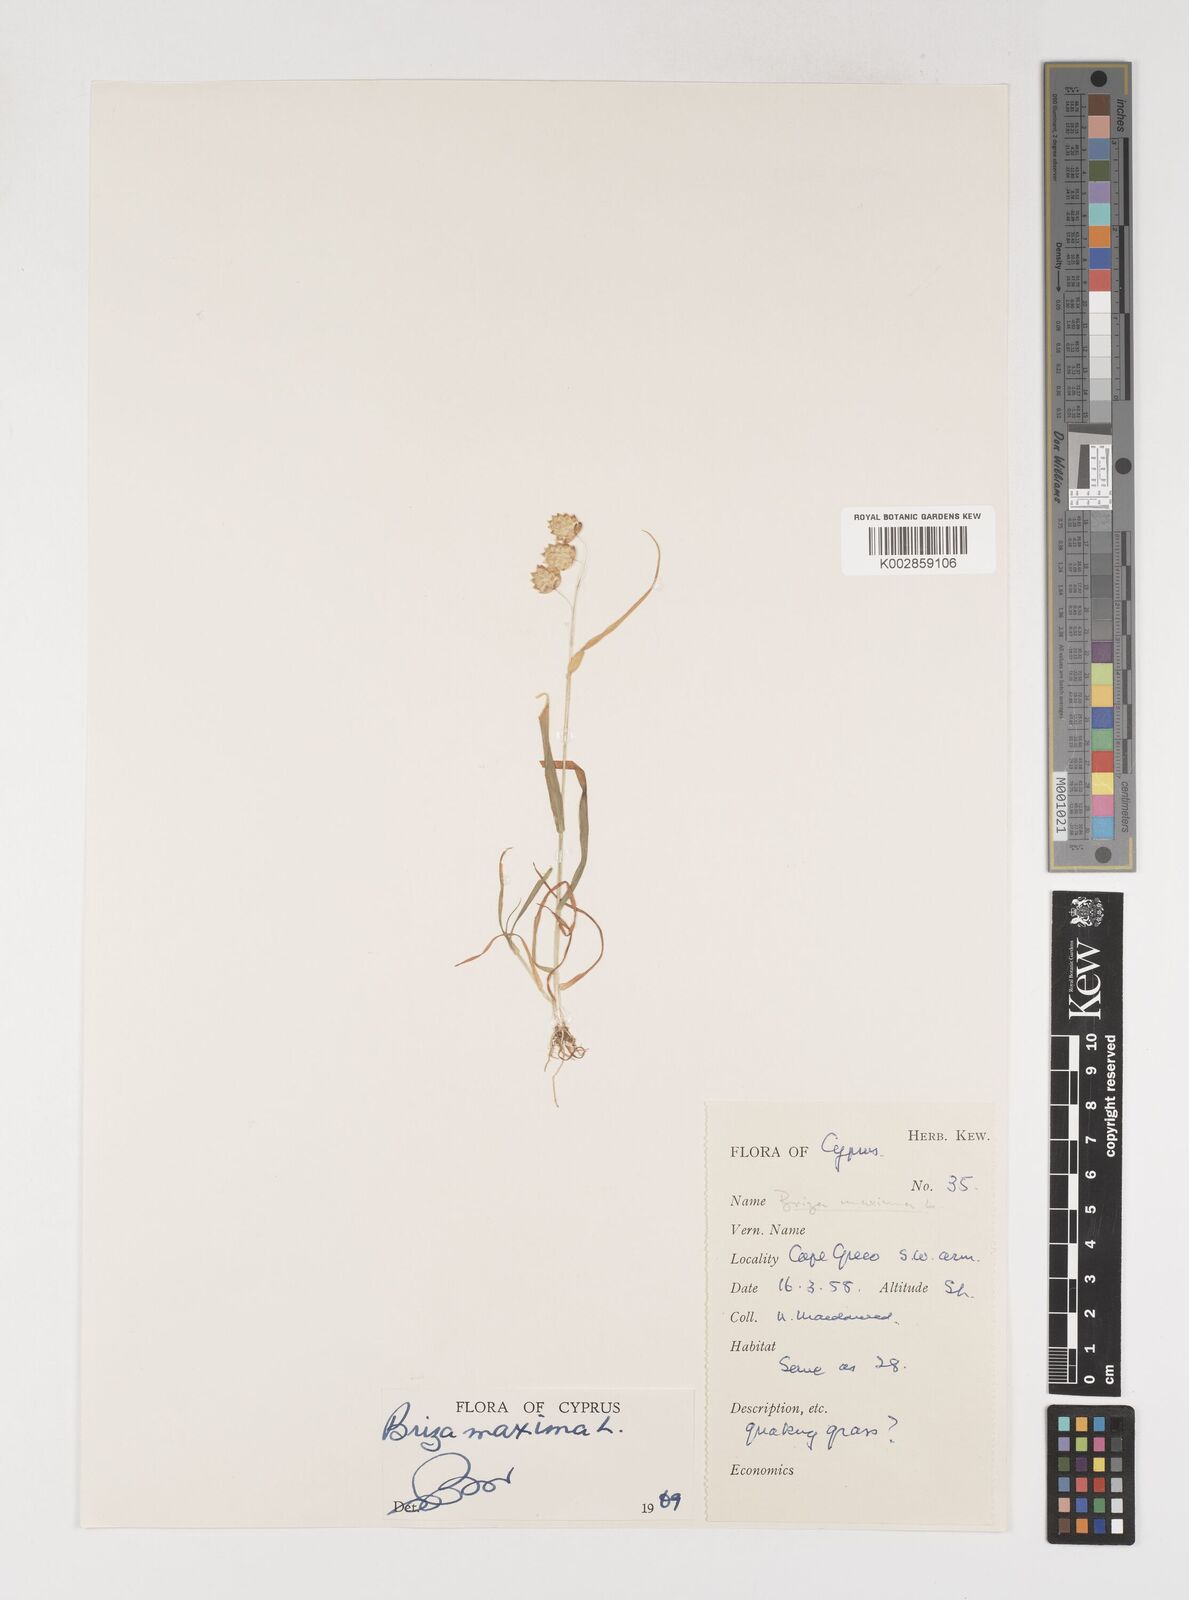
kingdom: Plantae
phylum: Tracheophyta
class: Liliopsida
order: Poales
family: Poaceae
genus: Briza
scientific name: Briza maxima
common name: Big quakinggrass
